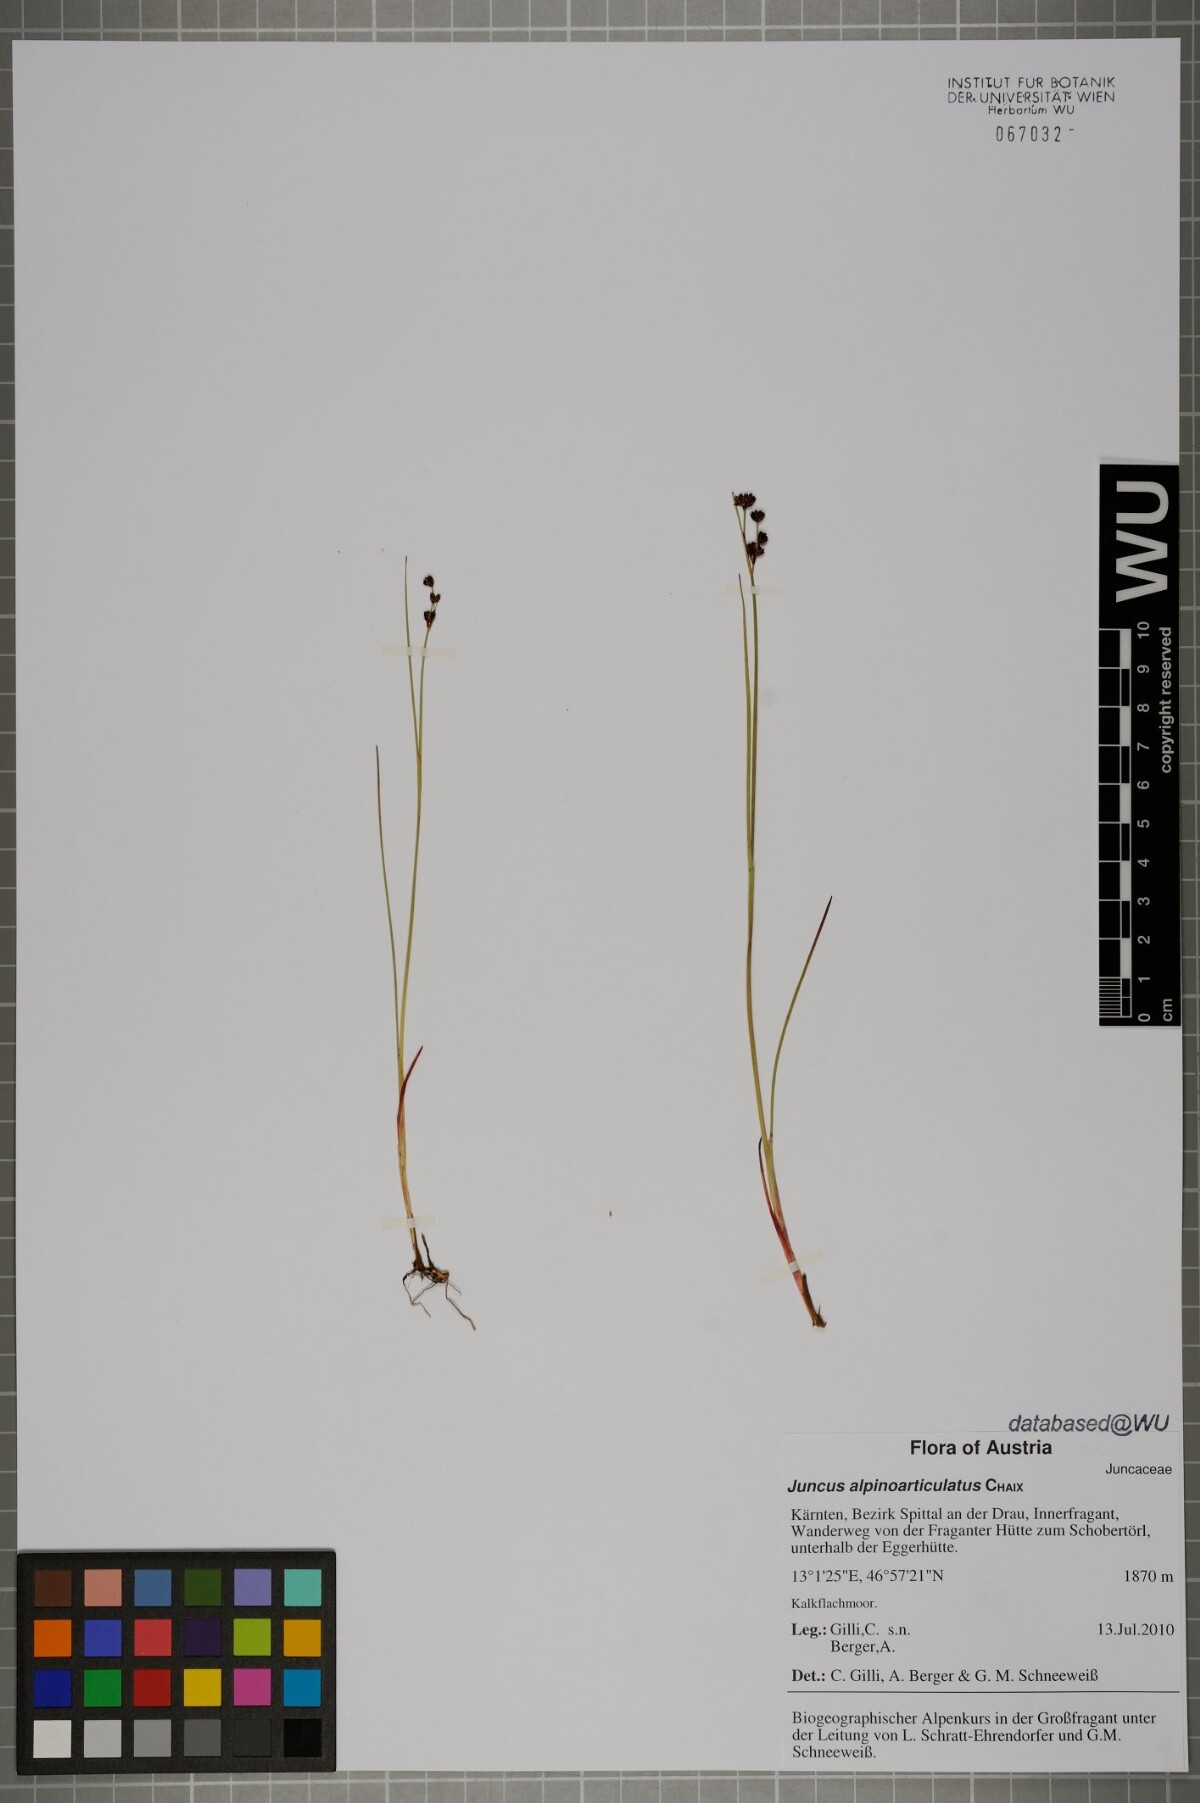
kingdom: Plantae
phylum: Tracheophyta
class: Liliopsida
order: Poales
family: Juncaceae
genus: Juncus
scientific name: Juncus alpinoarticulatus
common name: Alpine rush
